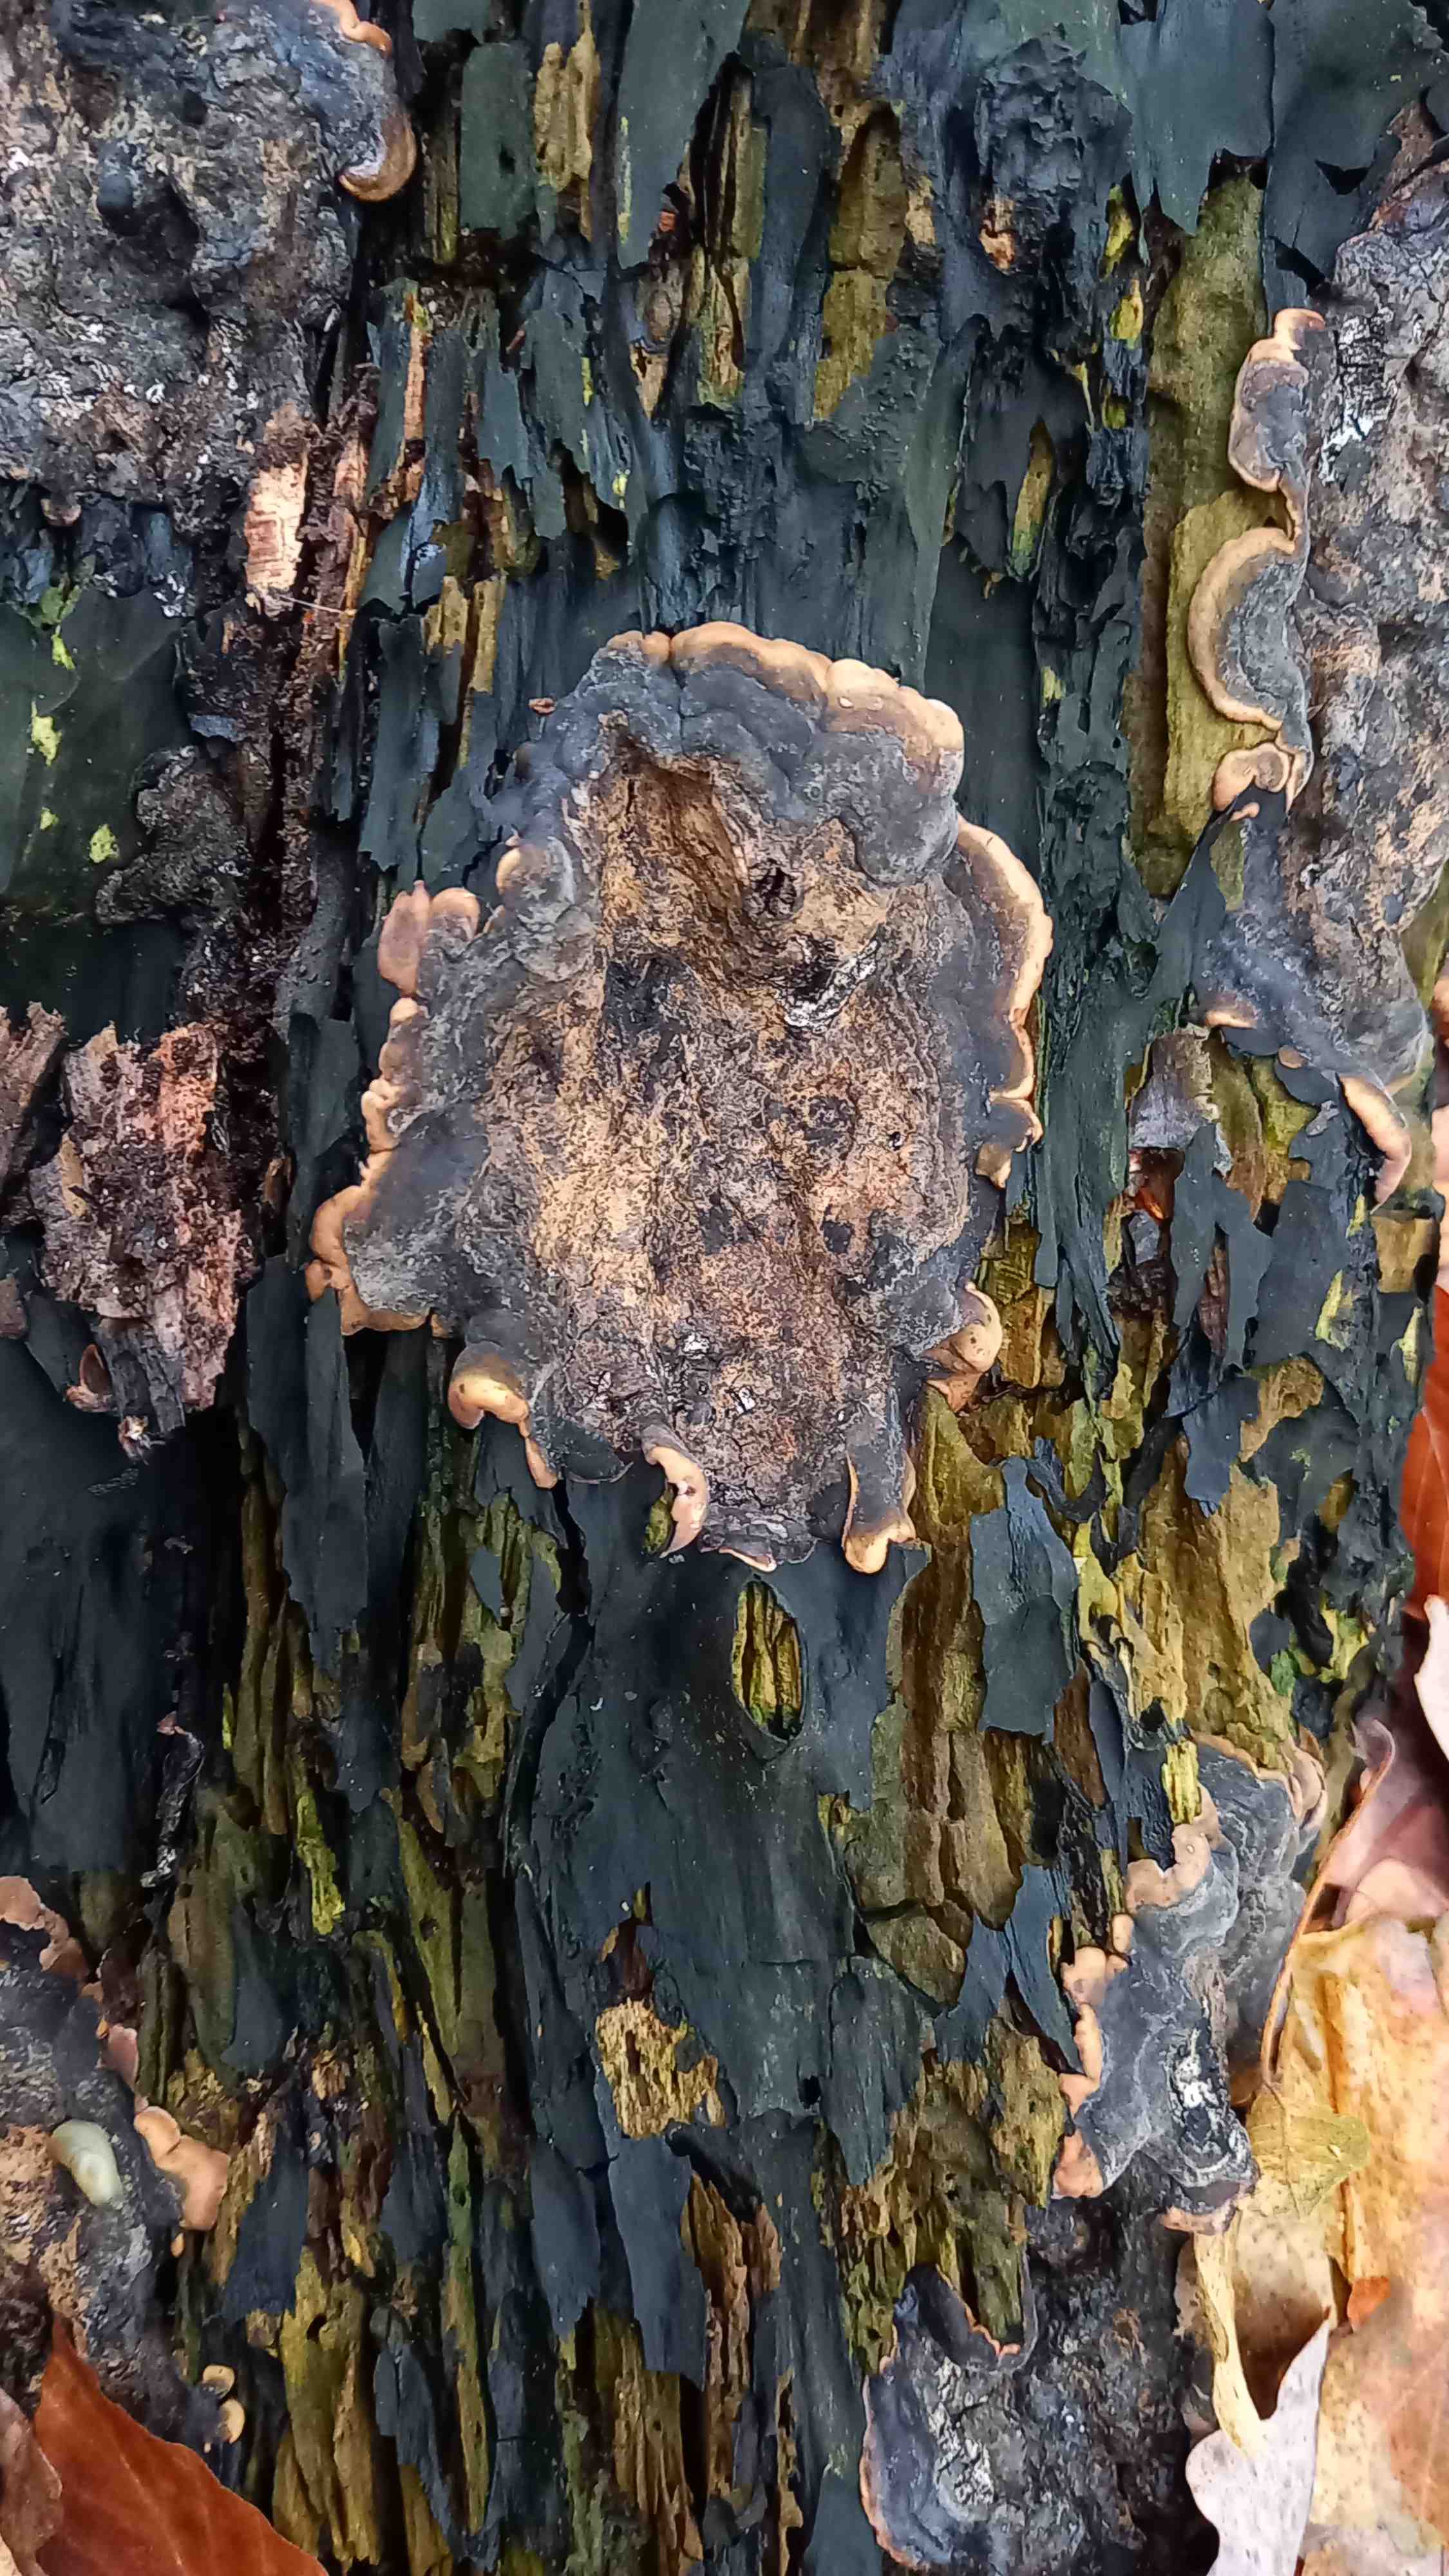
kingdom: Fungi
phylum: Ascomycota
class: Sordariomycetes
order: Xylariales
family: Xylariaceae
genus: Kretzschmaria
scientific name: Kretzschmaria deusta
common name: stor kulsvamp
